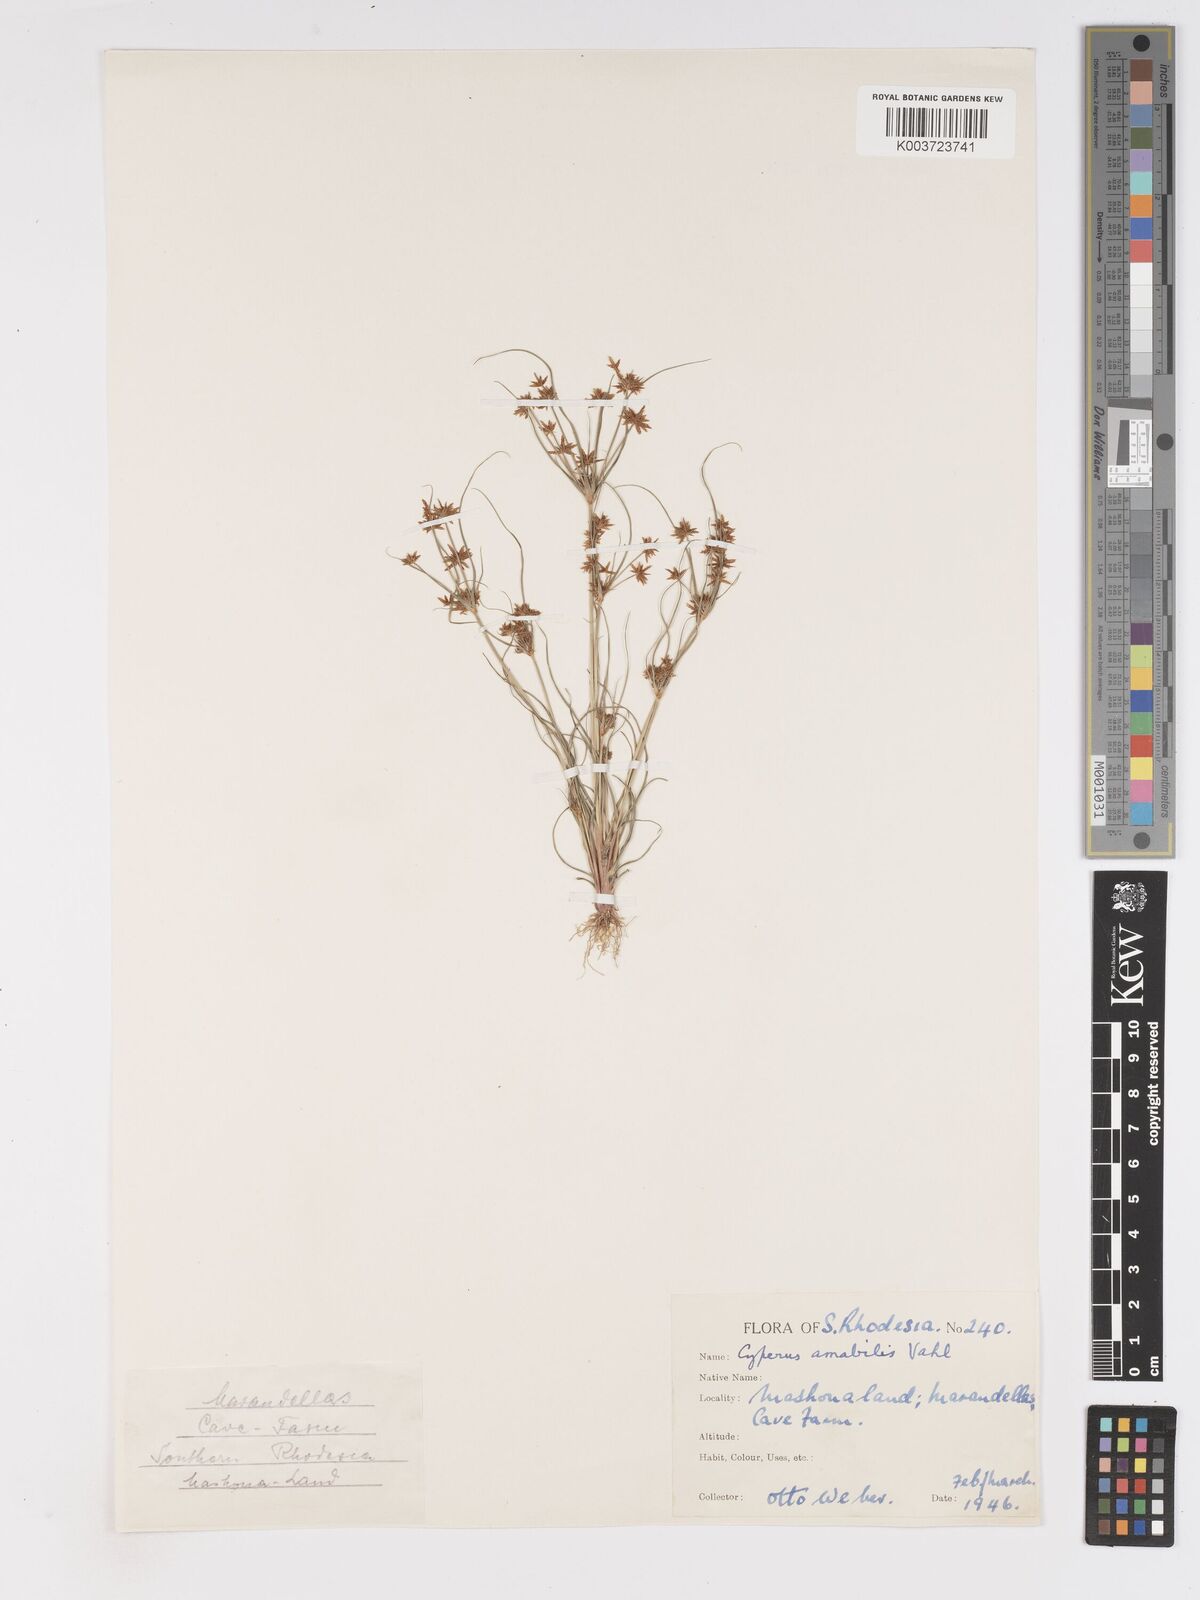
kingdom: Plantae
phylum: Tracheophyta
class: Liliopsida
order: Poales
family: Cyperaceae
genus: Cyperus
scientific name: Cyperus amabilis
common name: Foothill flat sedge
